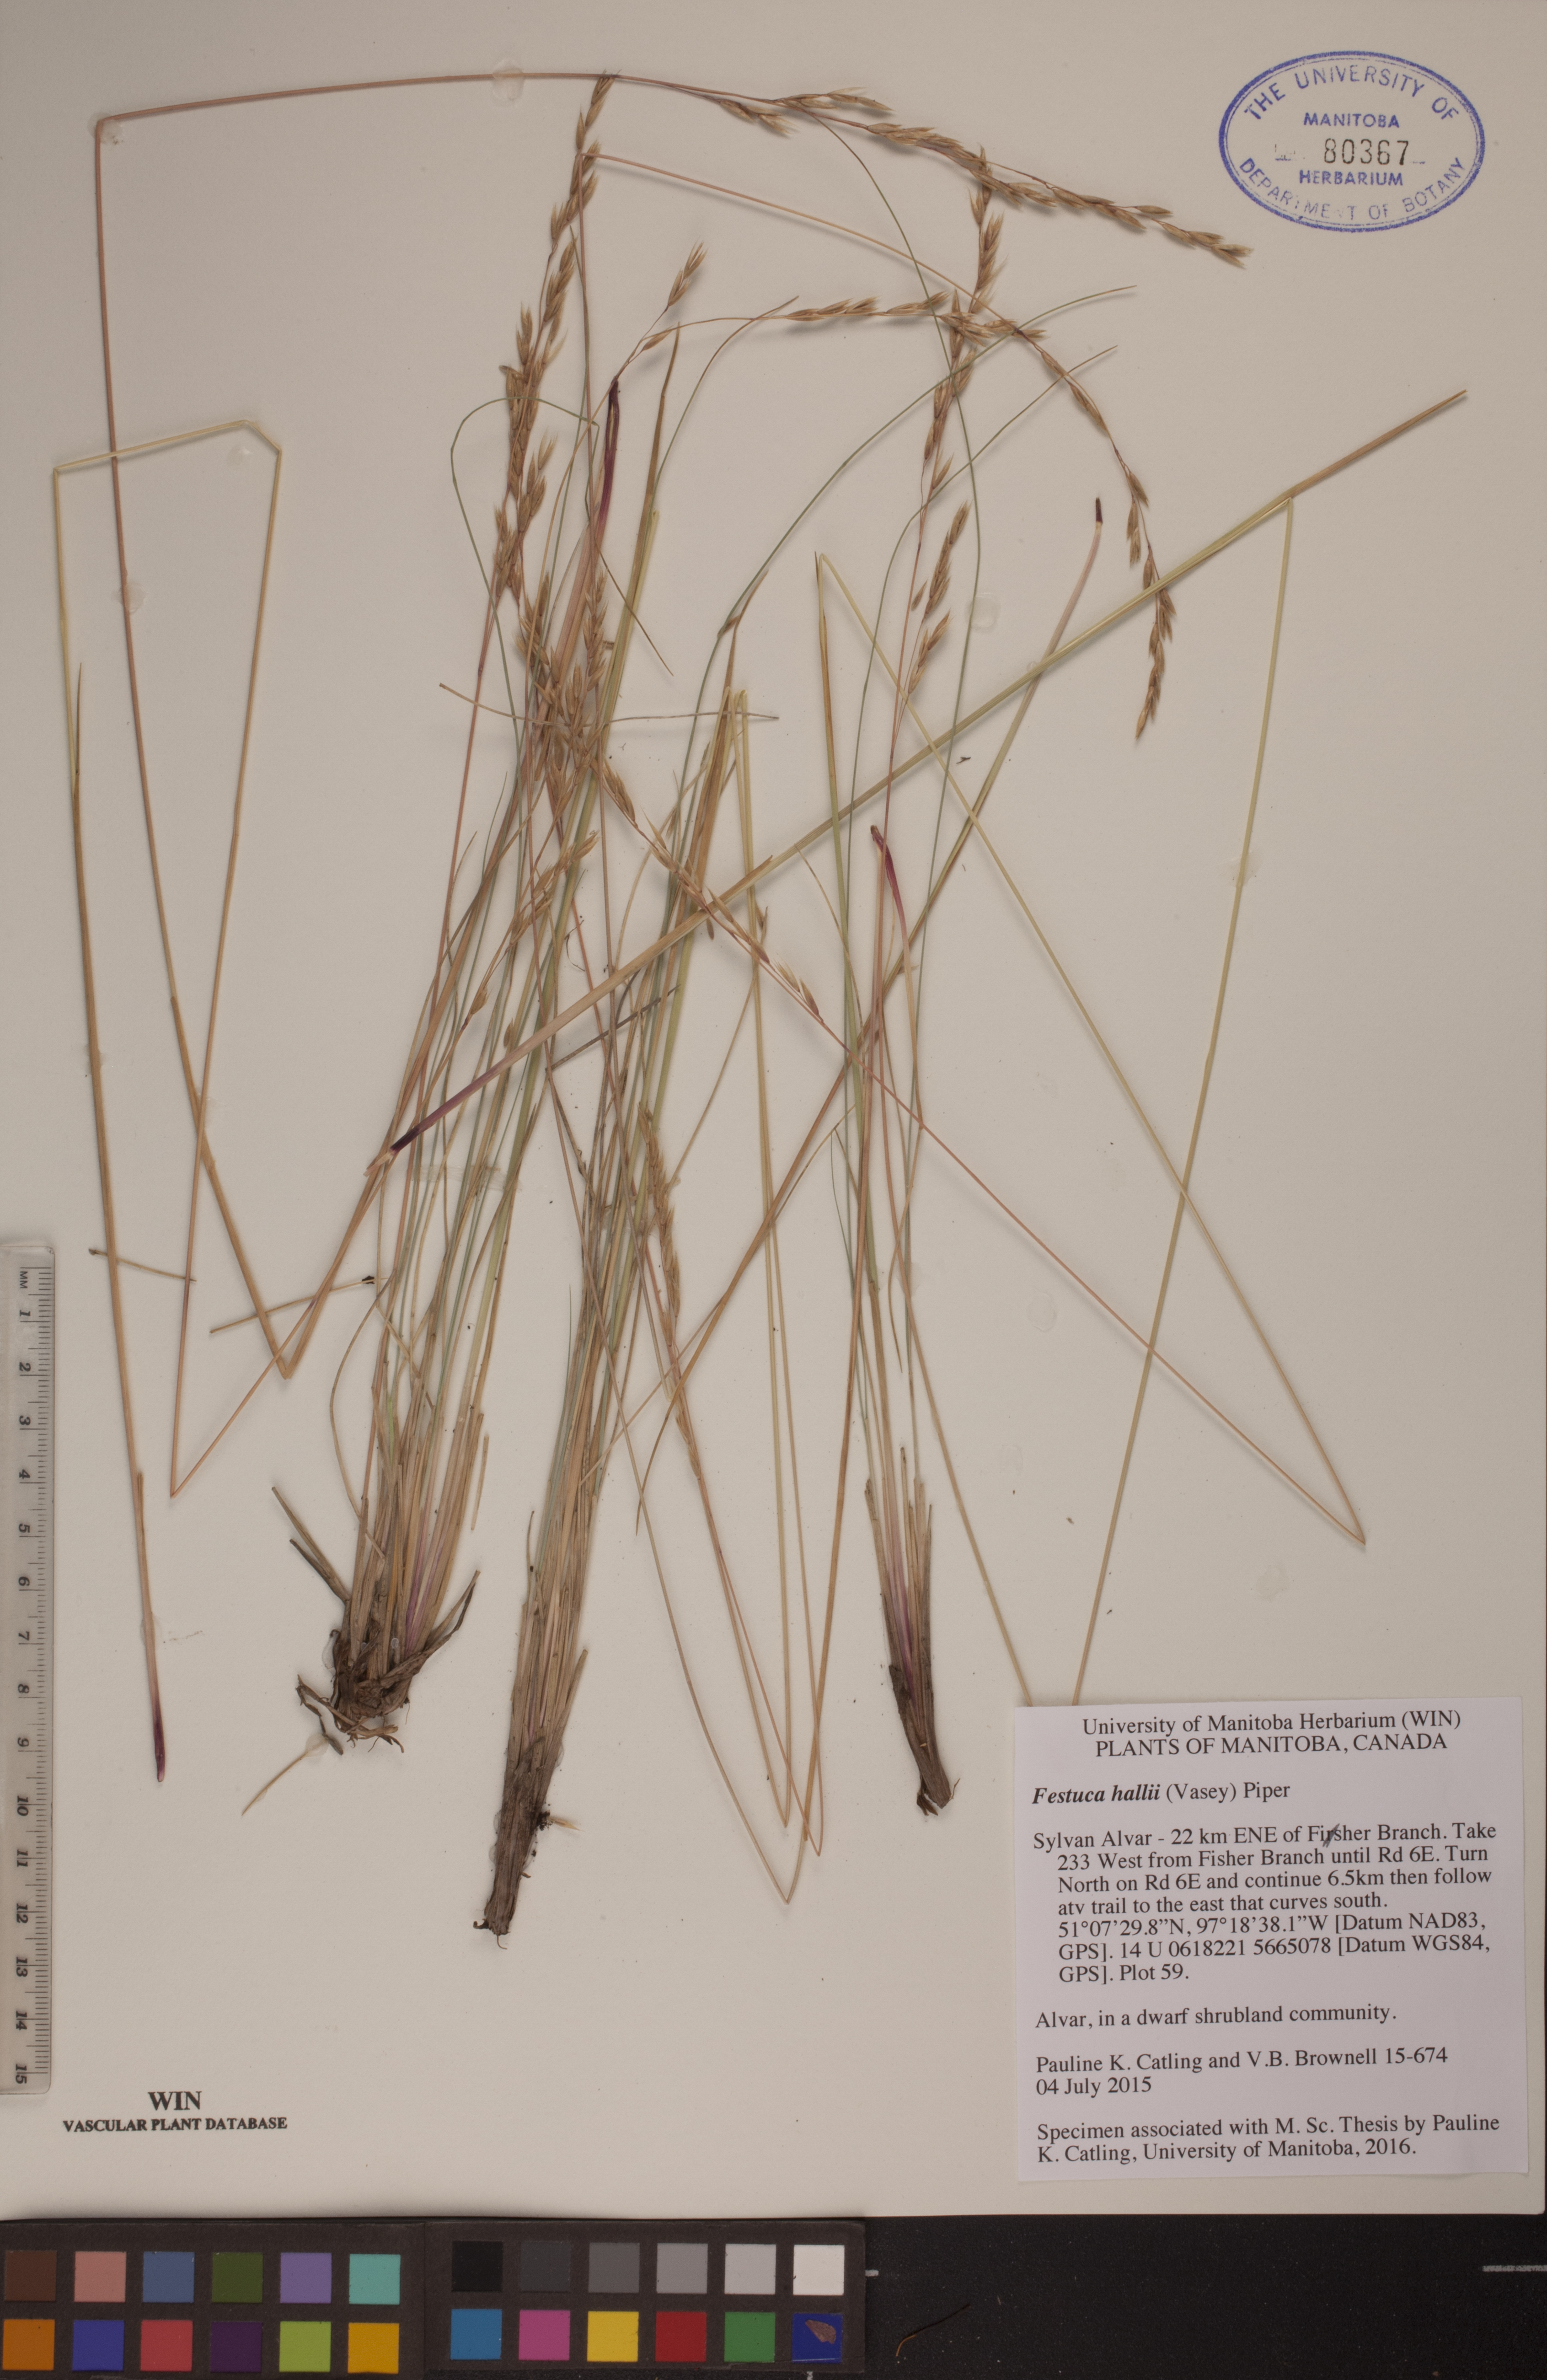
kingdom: Plantae
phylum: Tracheophyta
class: Liliopsida
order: Poales
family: Poaceae
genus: Festuca
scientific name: Festuca hallii
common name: Hall's fescue
